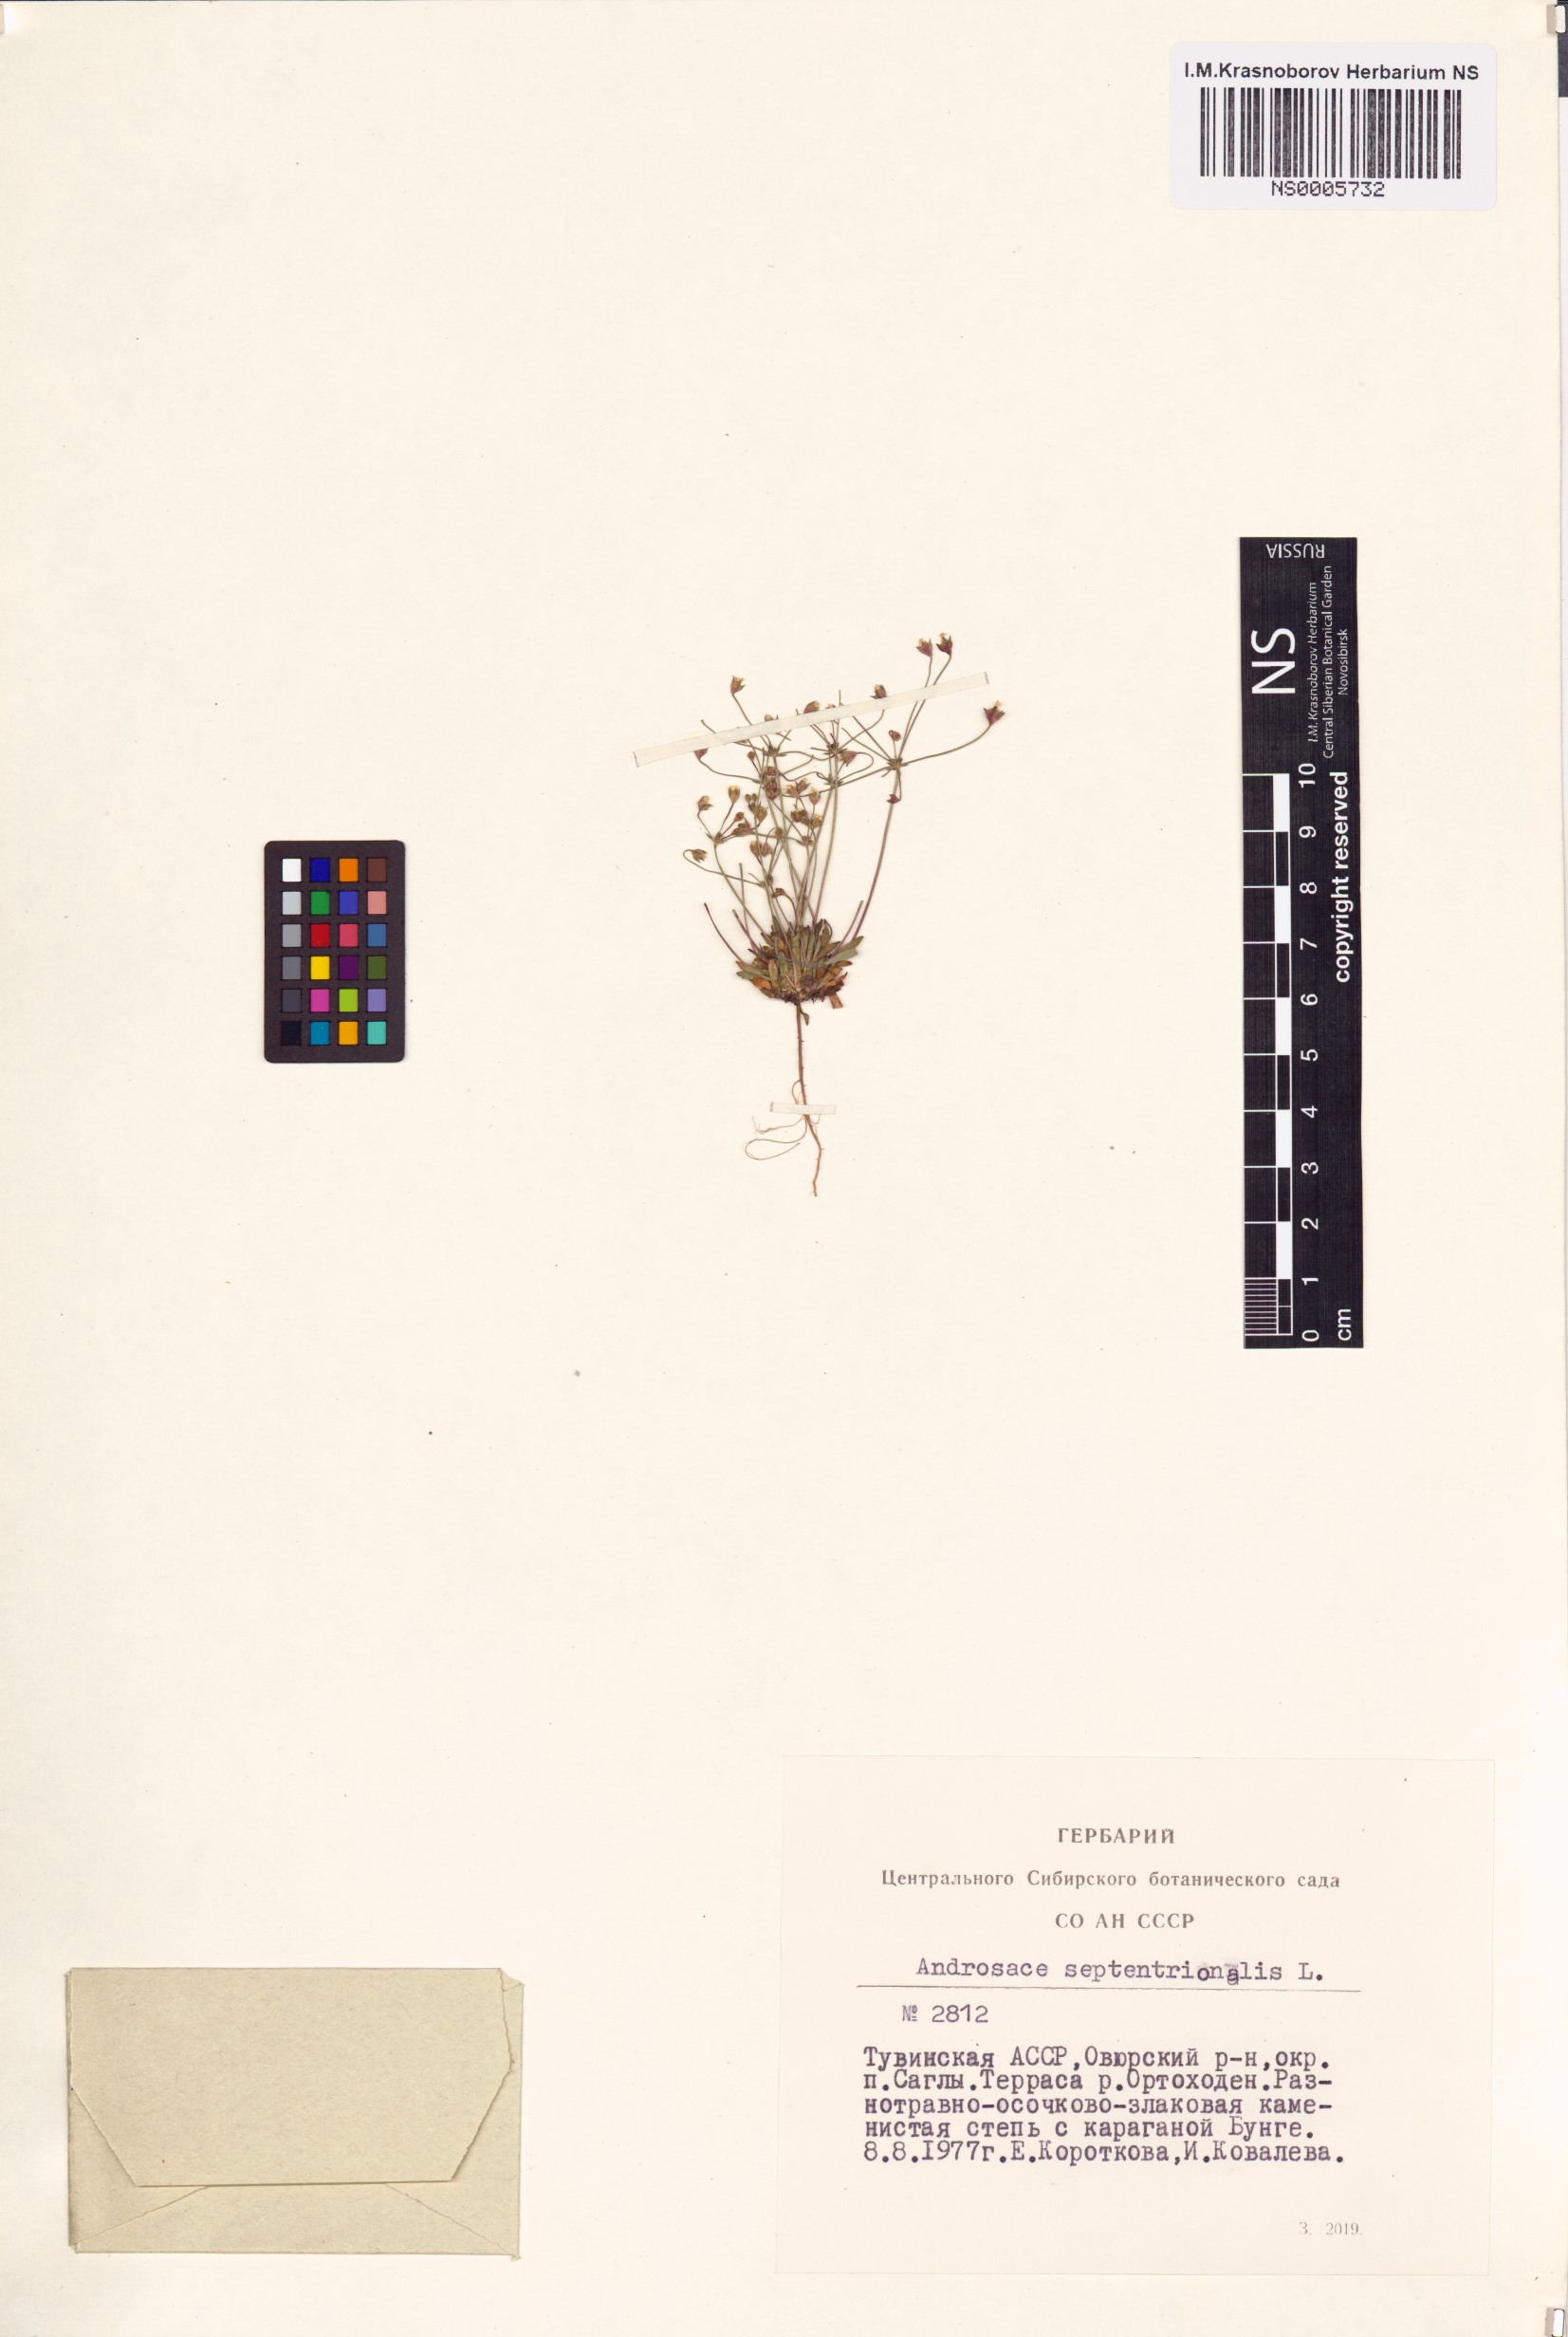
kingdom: Plantae
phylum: Tracheophyta
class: Magnoliopsida
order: Ericales
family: Primulaceae
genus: Androsace
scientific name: Androsace septentrionalis
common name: Hairy northern fairy-candelabra
